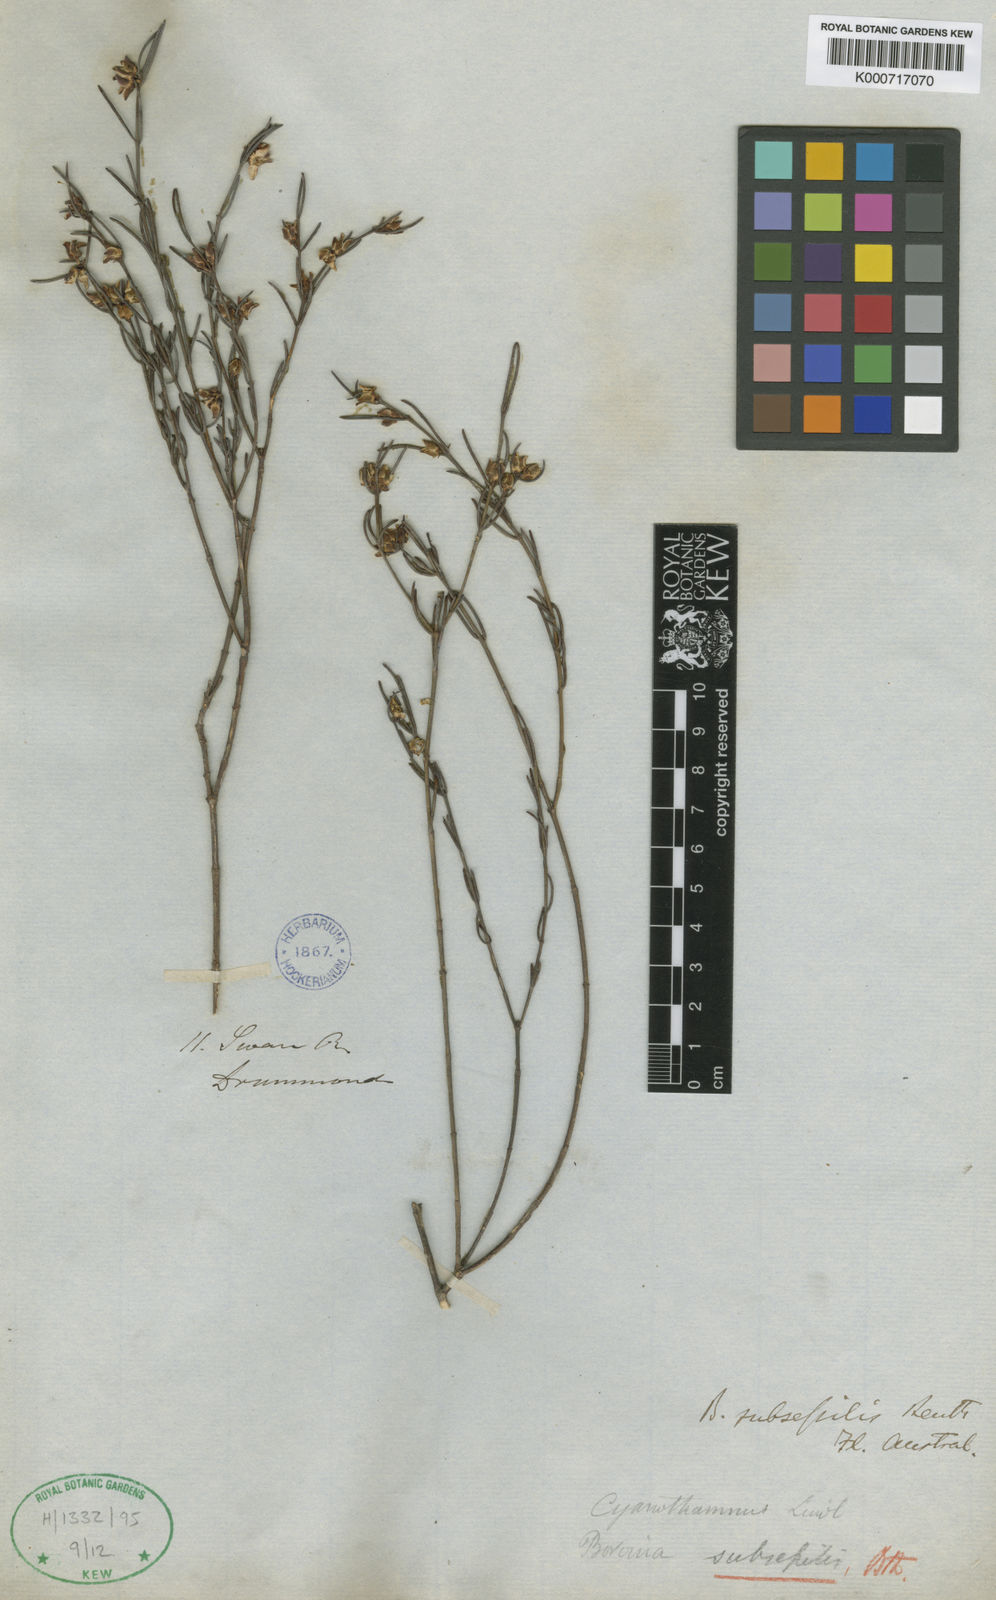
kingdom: Plantae
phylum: Tracheophyta
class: Magnoliopsida
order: Sapindales
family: Rutaceae
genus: Cyanothamnus
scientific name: Cyanothamnus subsessilis
